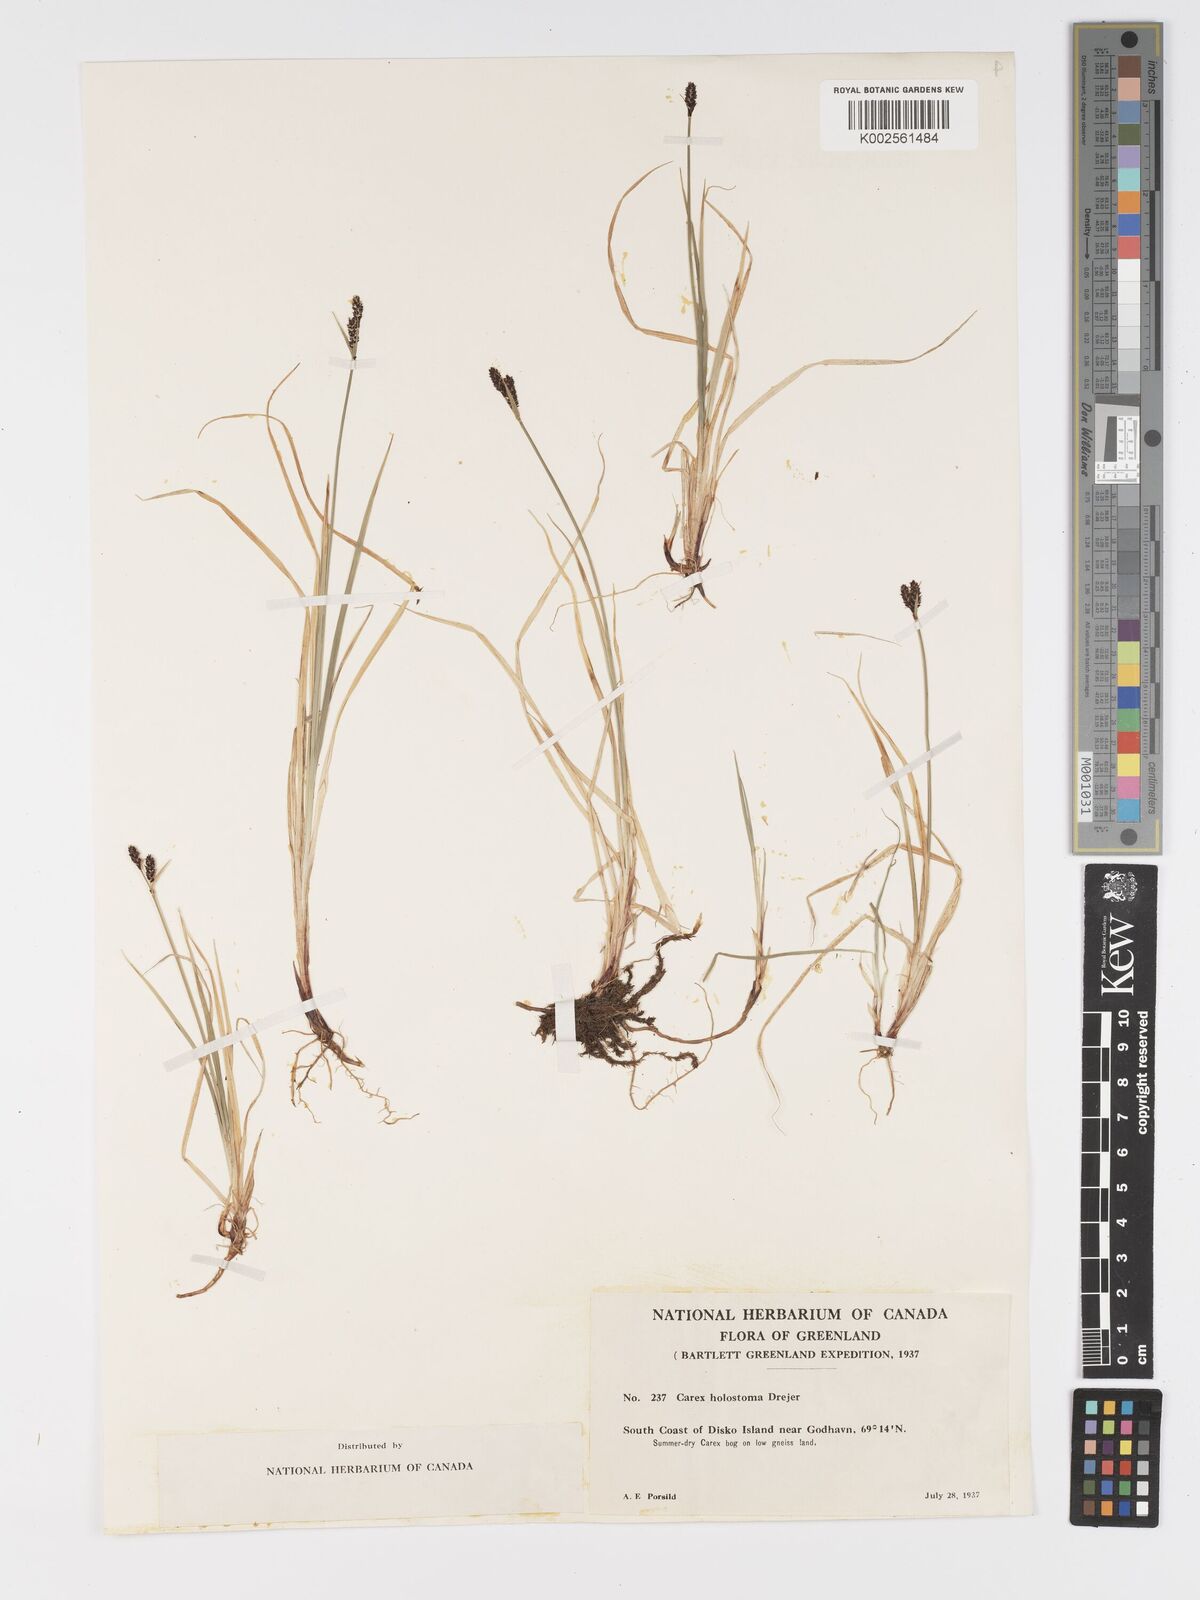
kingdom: Plantae
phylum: Tracheophyta
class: Liliopsida
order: Poales
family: Cyperaceae
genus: Carex
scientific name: Carex holostoma
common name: Arctic marsh sedge
